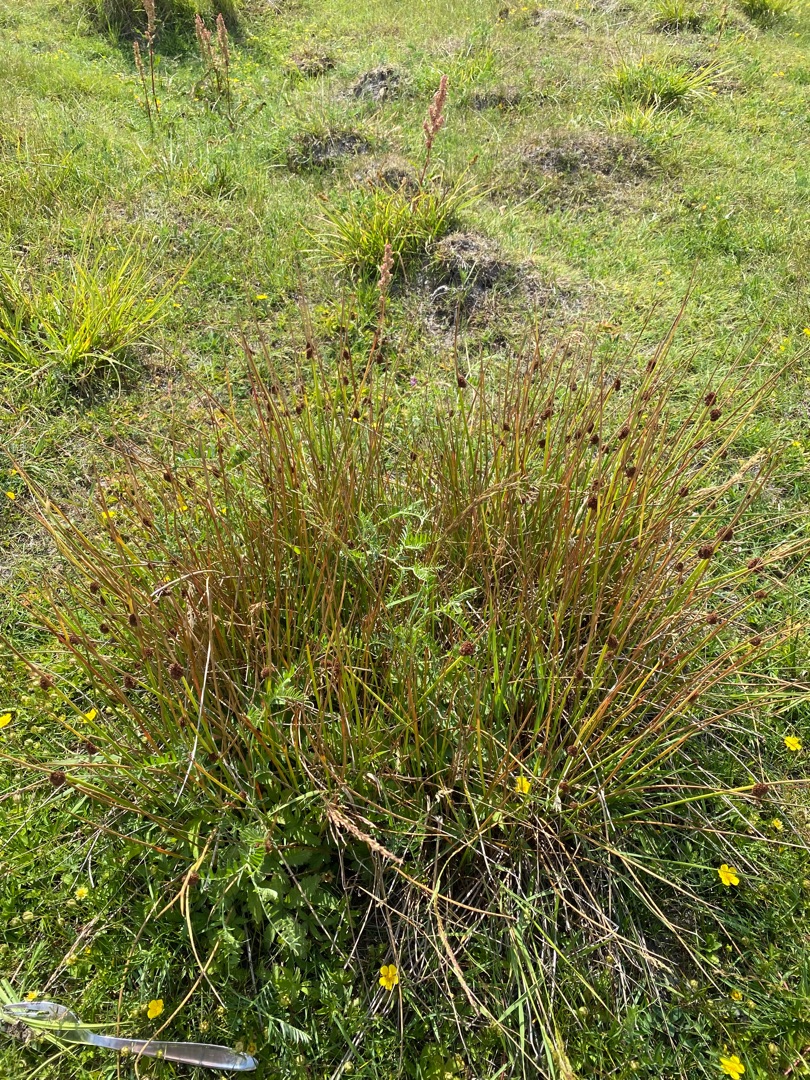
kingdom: Plantae
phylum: Tracheophyta
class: Liliopsida
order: Poales
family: Juncaceae
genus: Juncus
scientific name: Juncus conglomeratus
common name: Knop-siv
